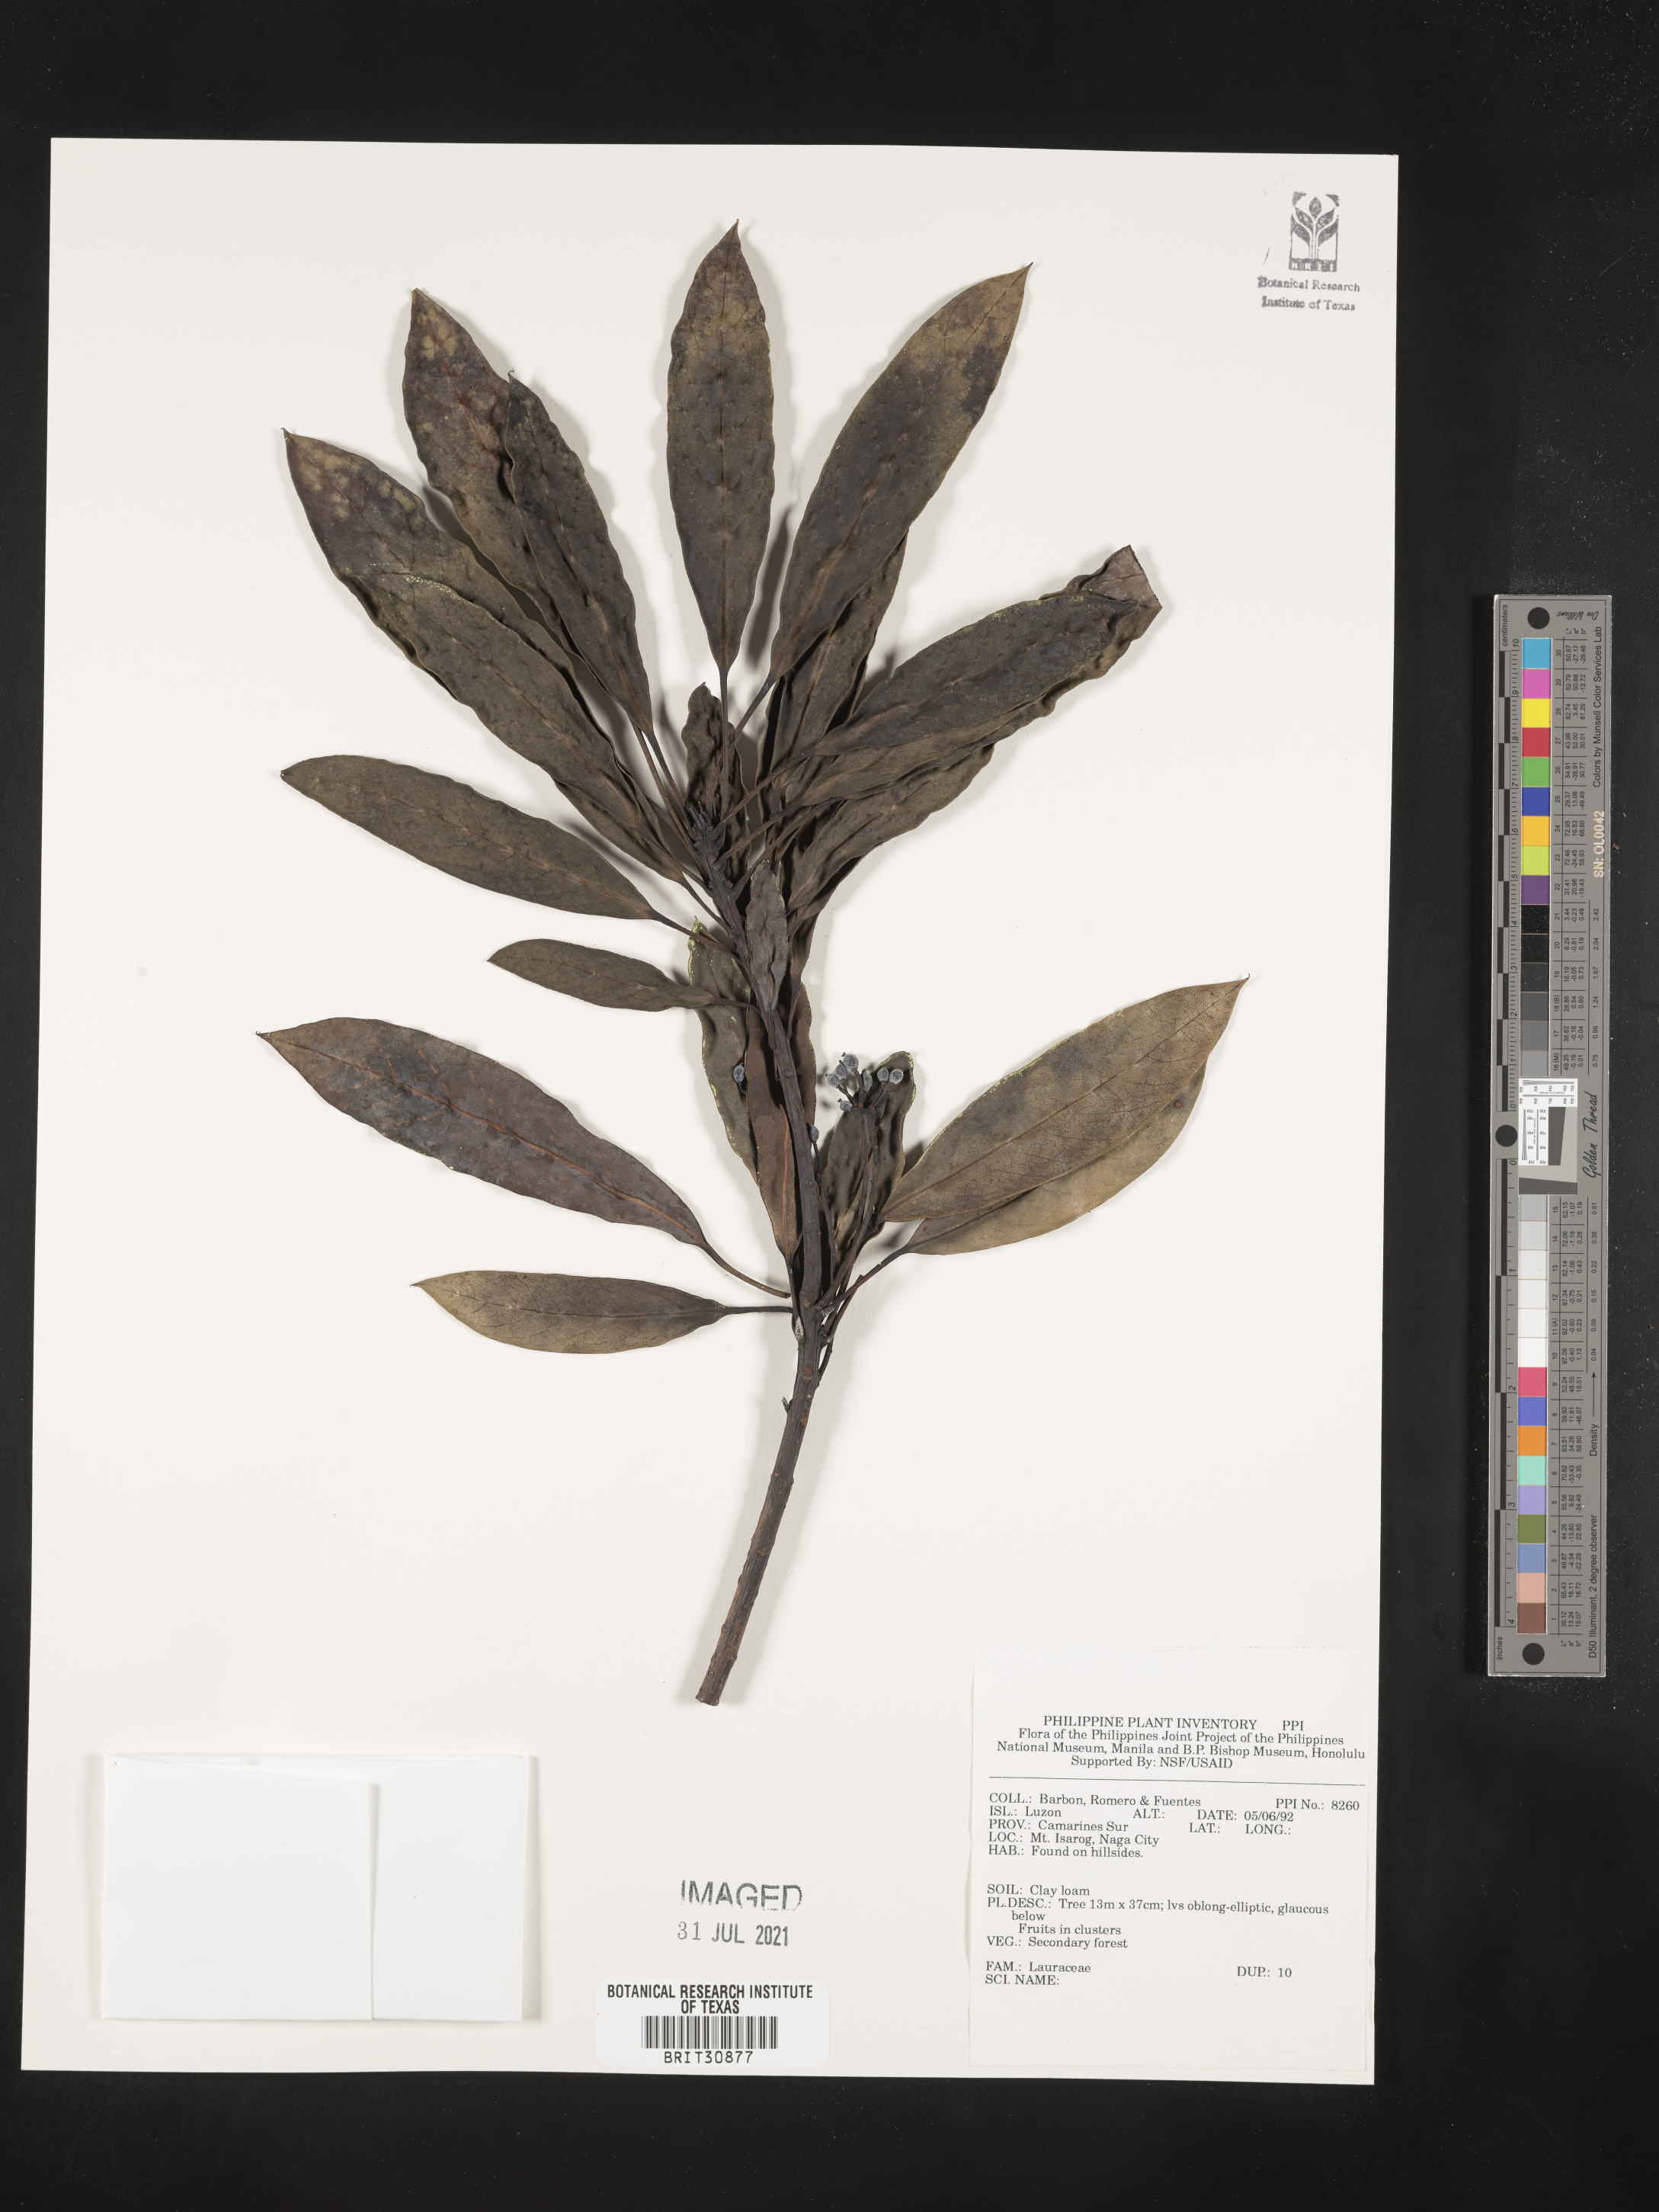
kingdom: Plantae
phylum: Tracheophyta
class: Magnoliopsida
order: Laurales
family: Lauraceae
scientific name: Lauraceae
